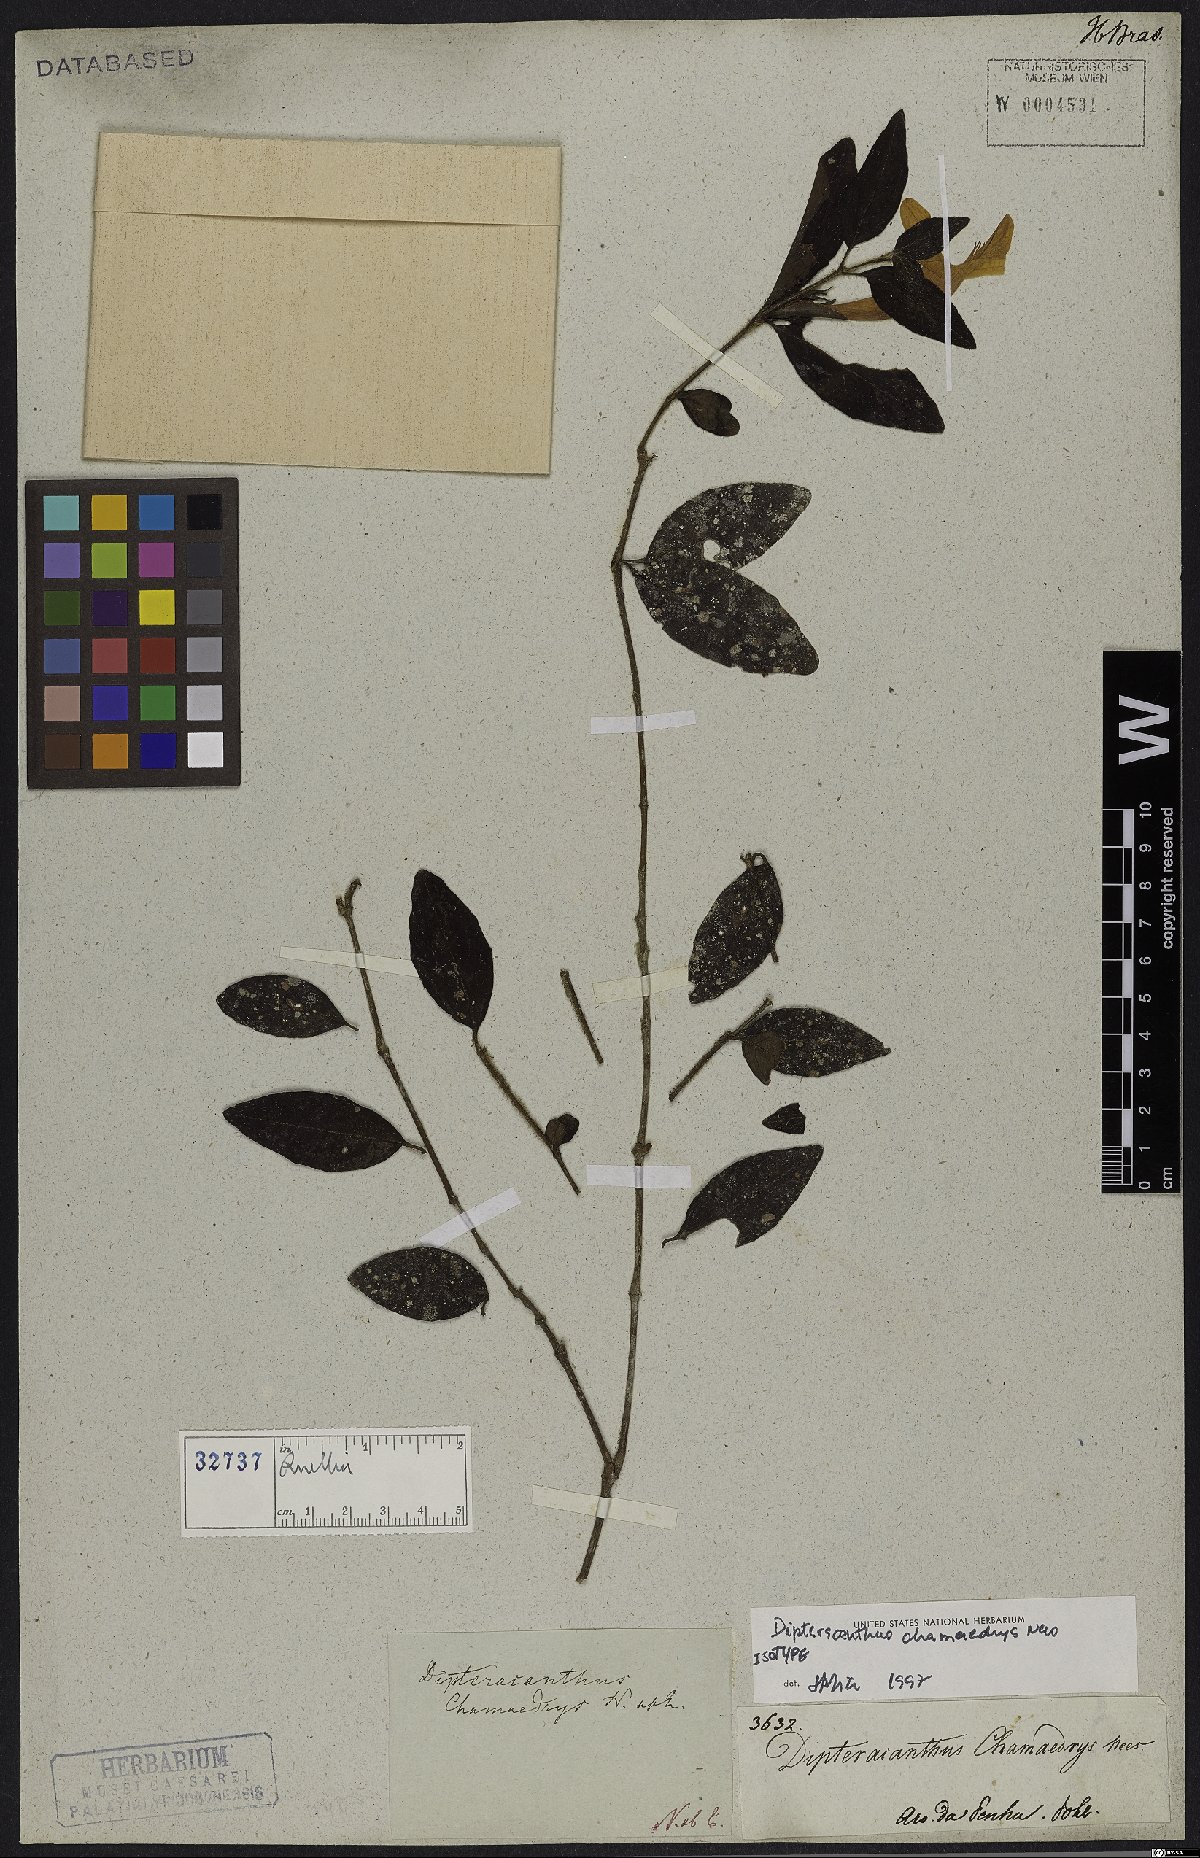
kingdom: Plantae
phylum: Tracheophyta
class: Magnoliopsida
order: Lamiales
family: Acanthaceae
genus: Ruellia
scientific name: Ruellia chamaedrys
